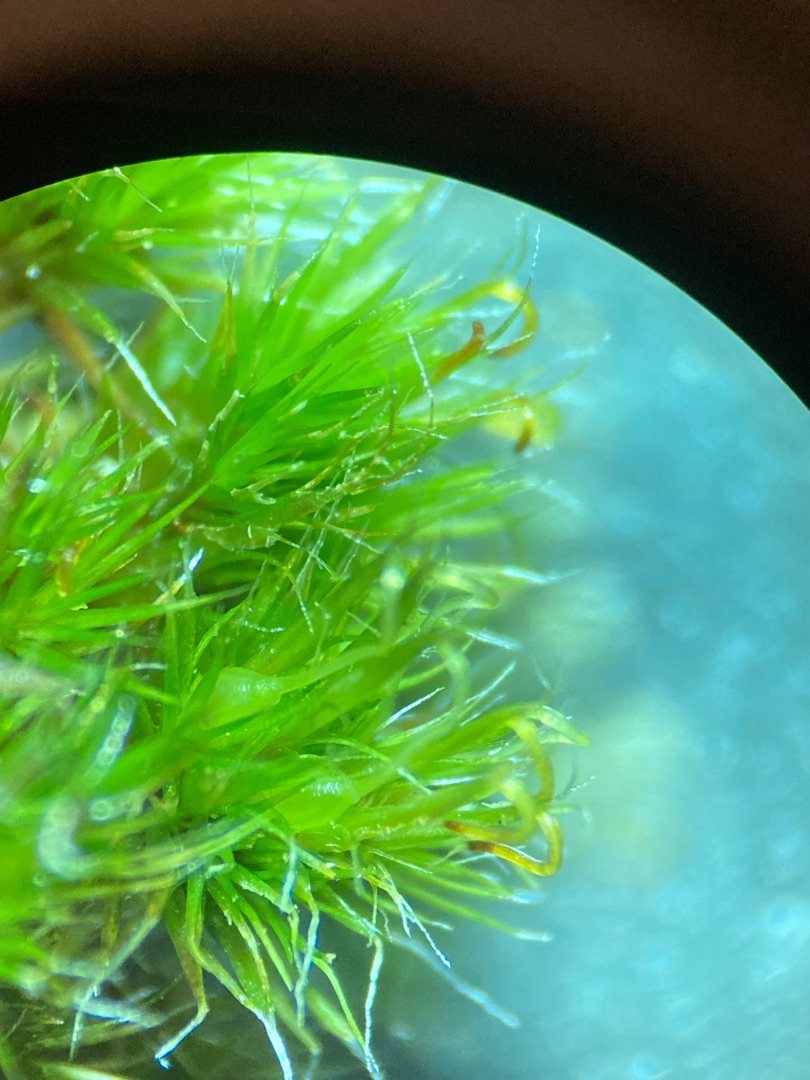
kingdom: Plantae
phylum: Bryophyta
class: Bryopsida
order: Dicranales
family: Leucobryaceae
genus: Campylopus
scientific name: Campylopus introflexus
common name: Stjerne-bredribbe
